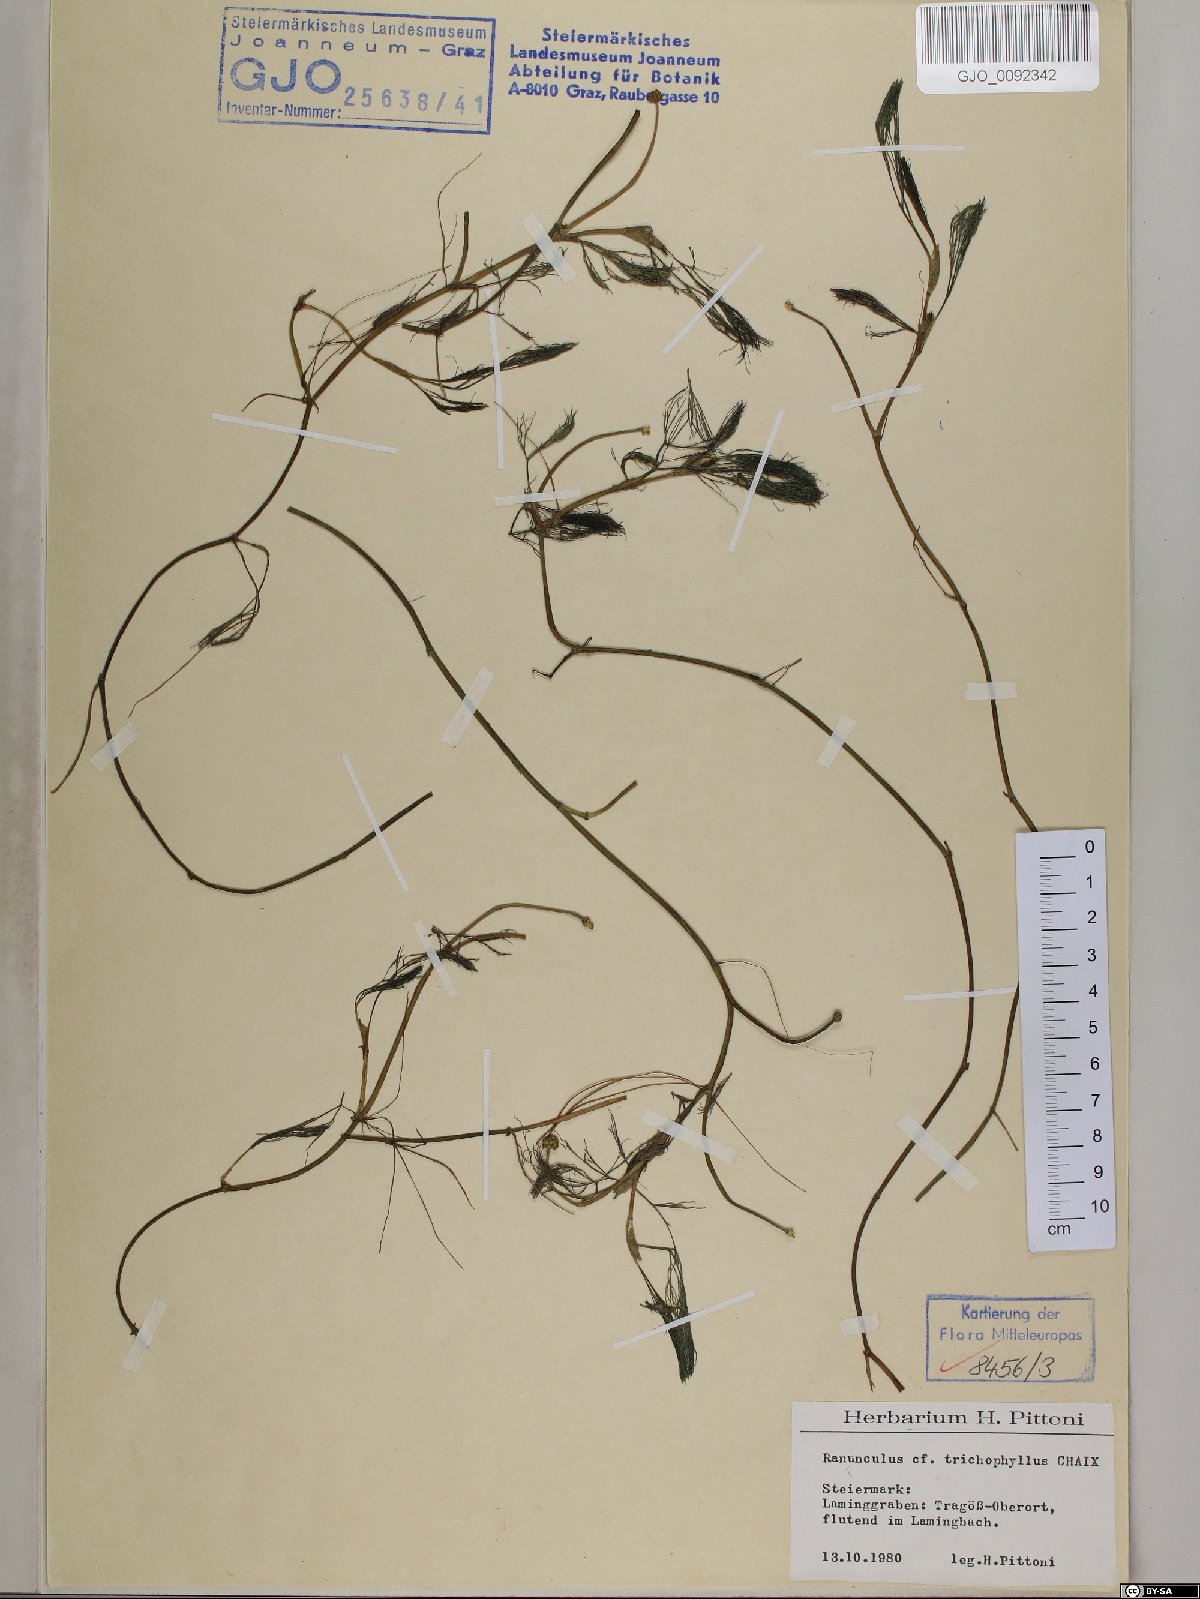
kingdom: Plantae
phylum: Tracheophyta
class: Magnoliopsida
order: Ranunculales
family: Ranunculaceae
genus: Ranunculus
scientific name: Ranunculus trichophyllus
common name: Thread-leaved water-crowfoot
